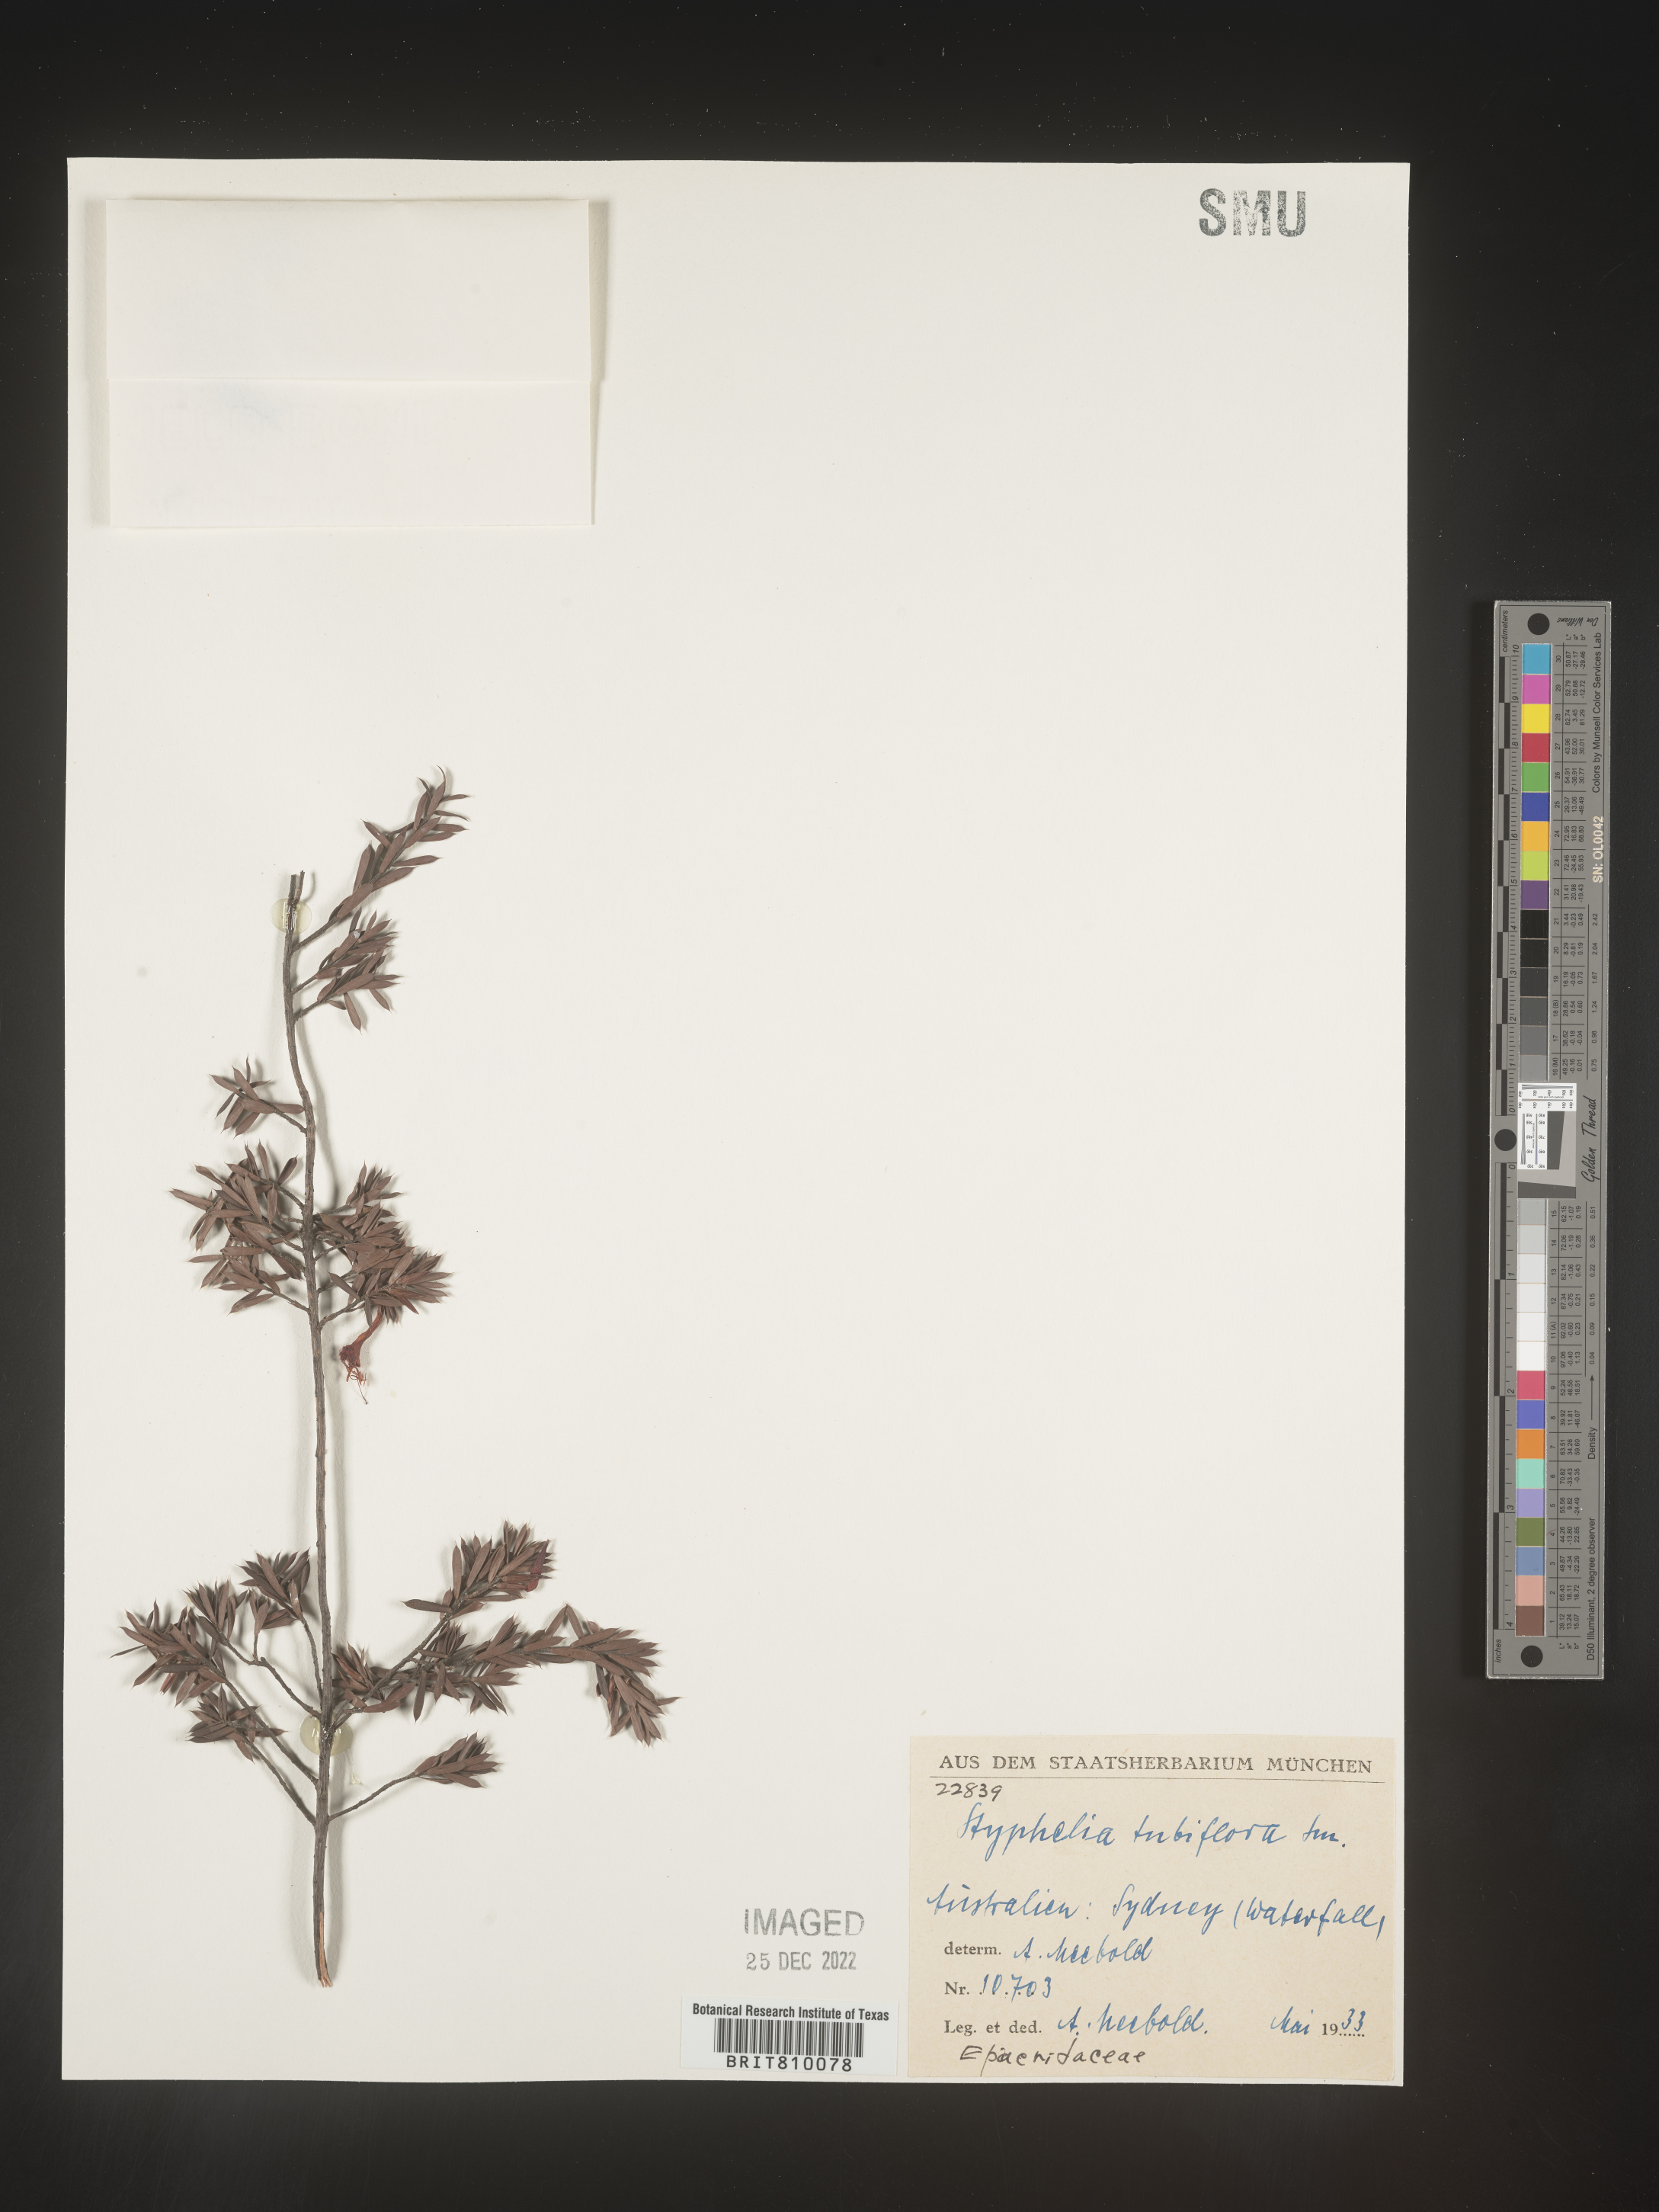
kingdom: Plantae
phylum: Tracheophyta
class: Magnoliopsida
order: Ericales
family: Ericaceae
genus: Styphelia
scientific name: Styphelia
